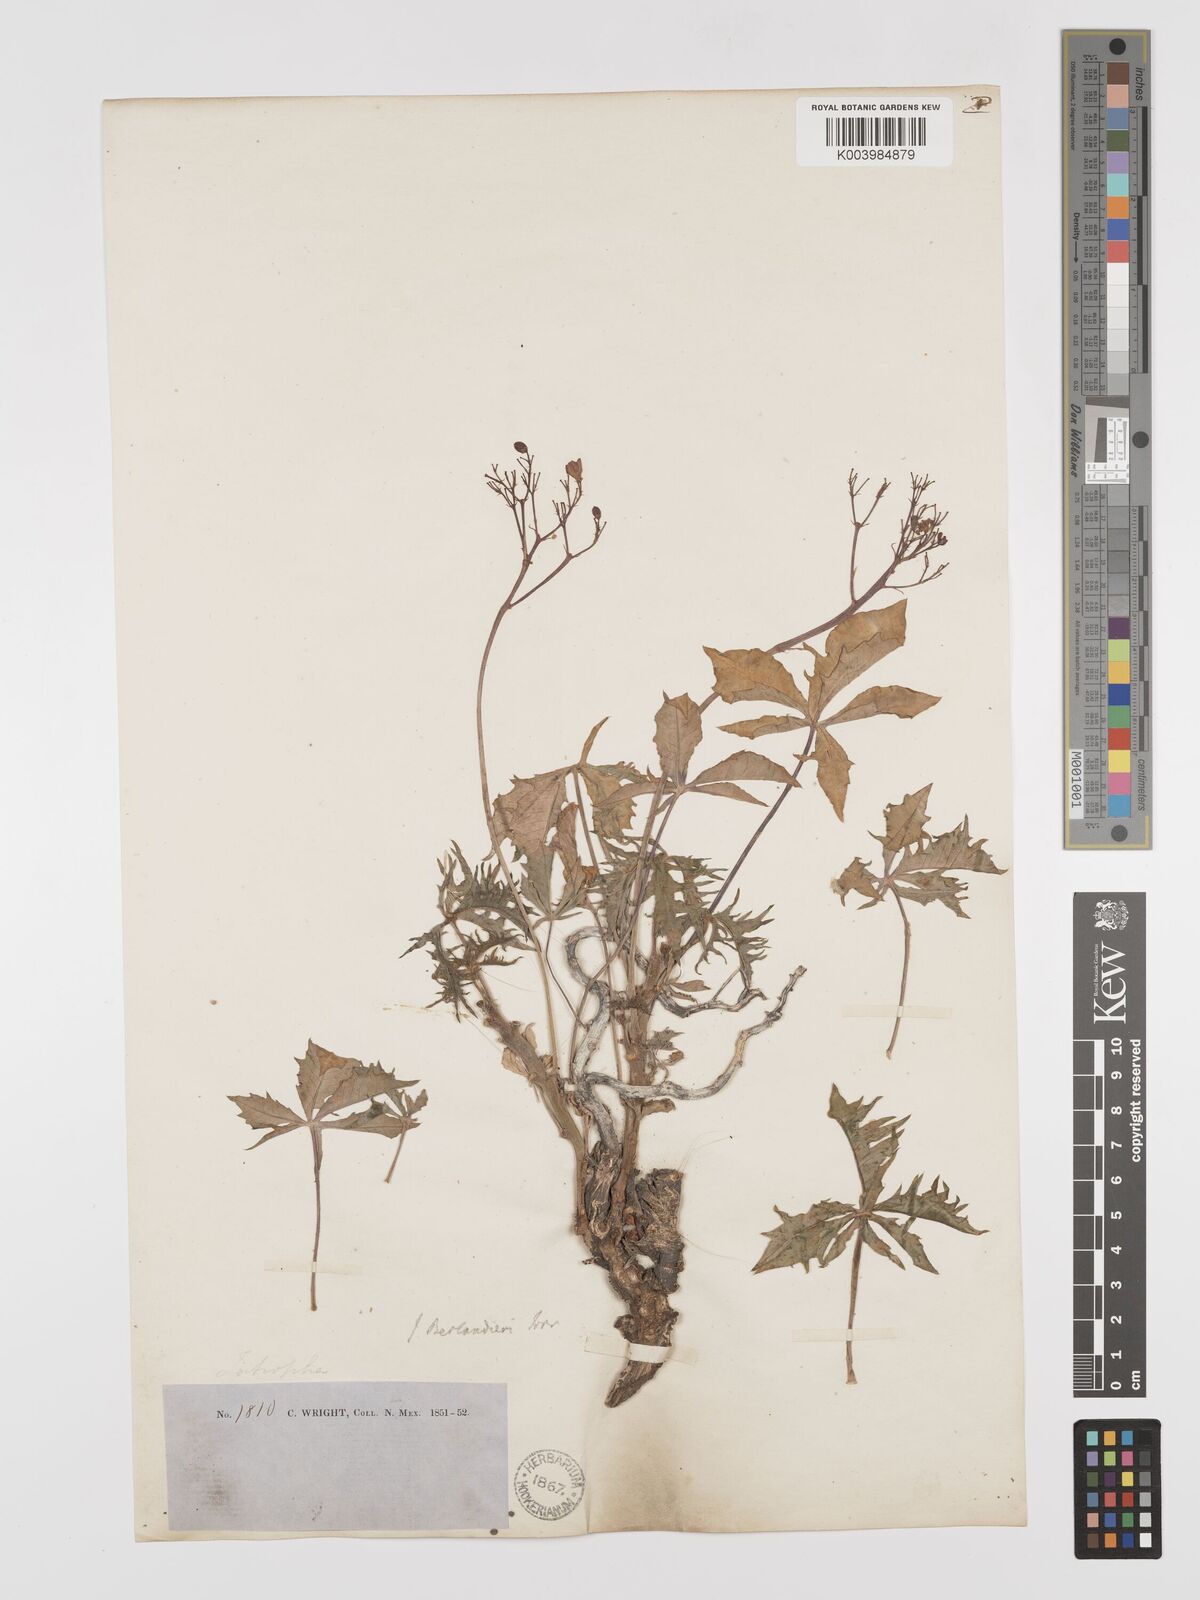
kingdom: Plantae
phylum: Tracheophyta
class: Magnoliopsida
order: Malpighiales
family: Euphorbiaceae
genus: Jatropha
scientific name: Jatropha cathartica
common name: Berlander's nettlespurge
